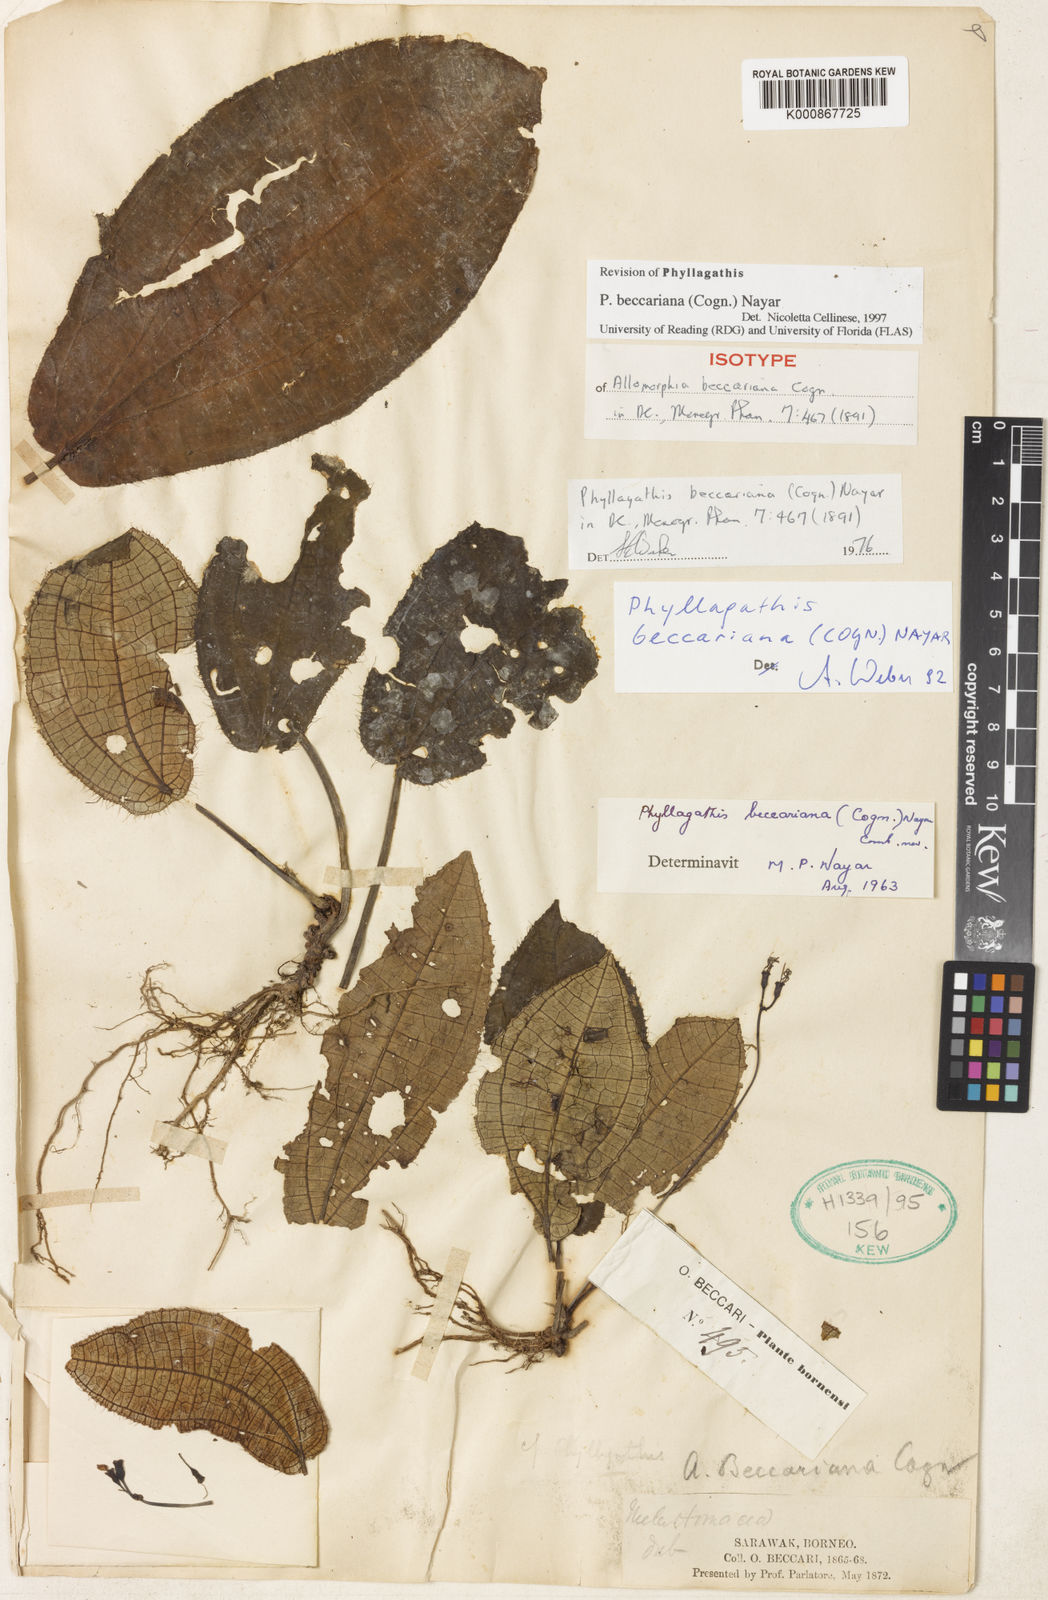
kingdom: Plantae
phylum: Tracheophyta
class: Magnoliopsida
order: Myrtales
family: Melastomataceae
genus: Phyllagathis
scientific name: Phyllagathis beccariana
